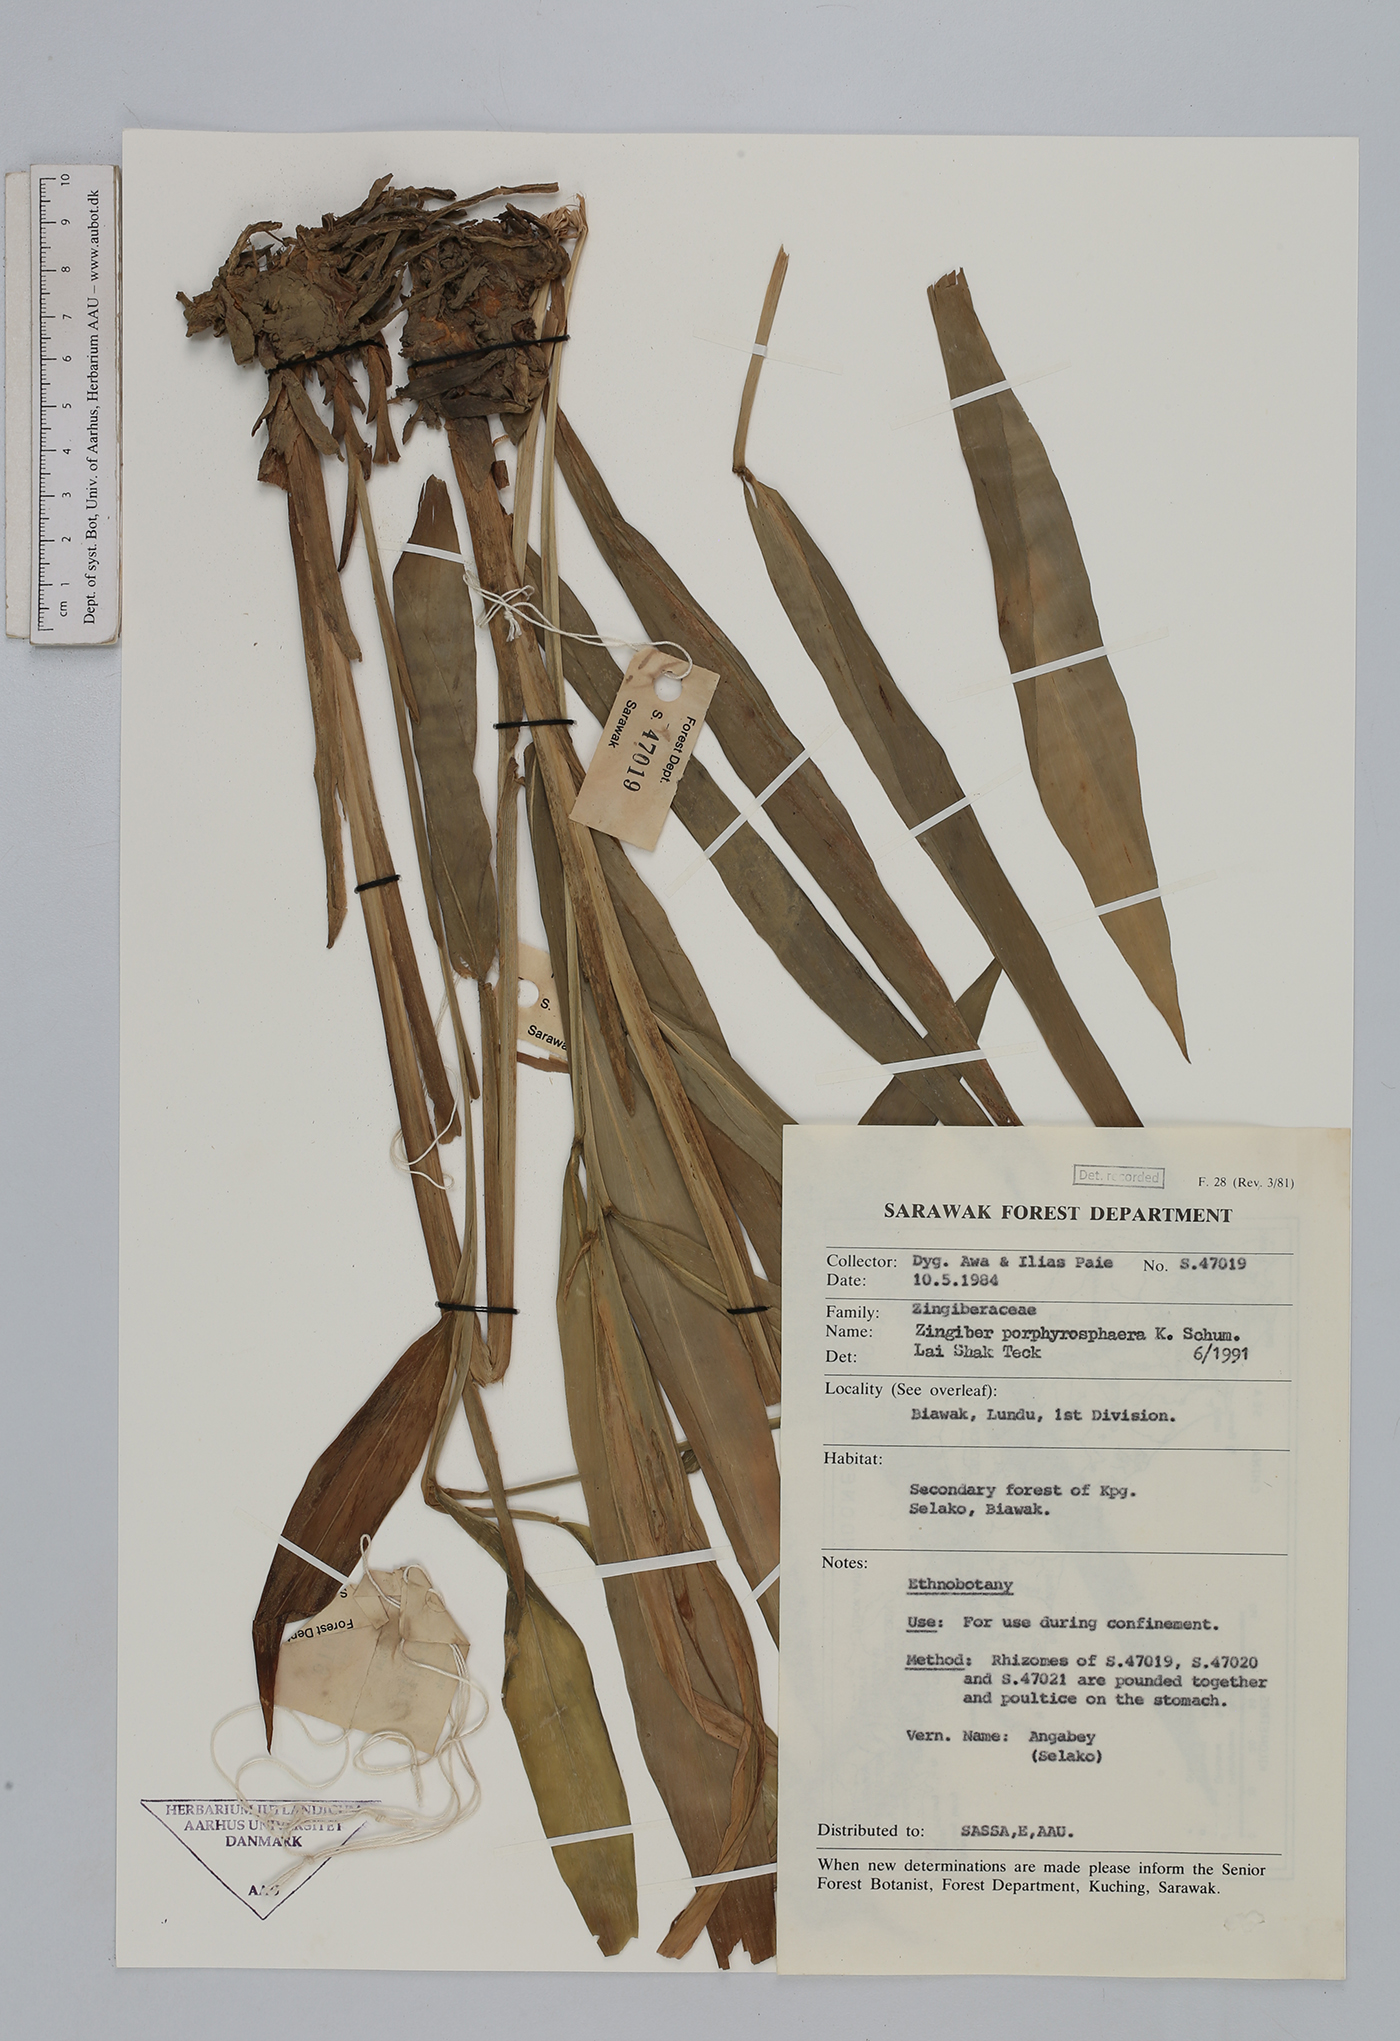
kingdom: Plantae
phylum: Tracheophyta
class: Liliopsida
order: Zingiberales
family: Zingiberaceae
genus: Zingiber
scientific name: Zingiber porphyrosphaerum
